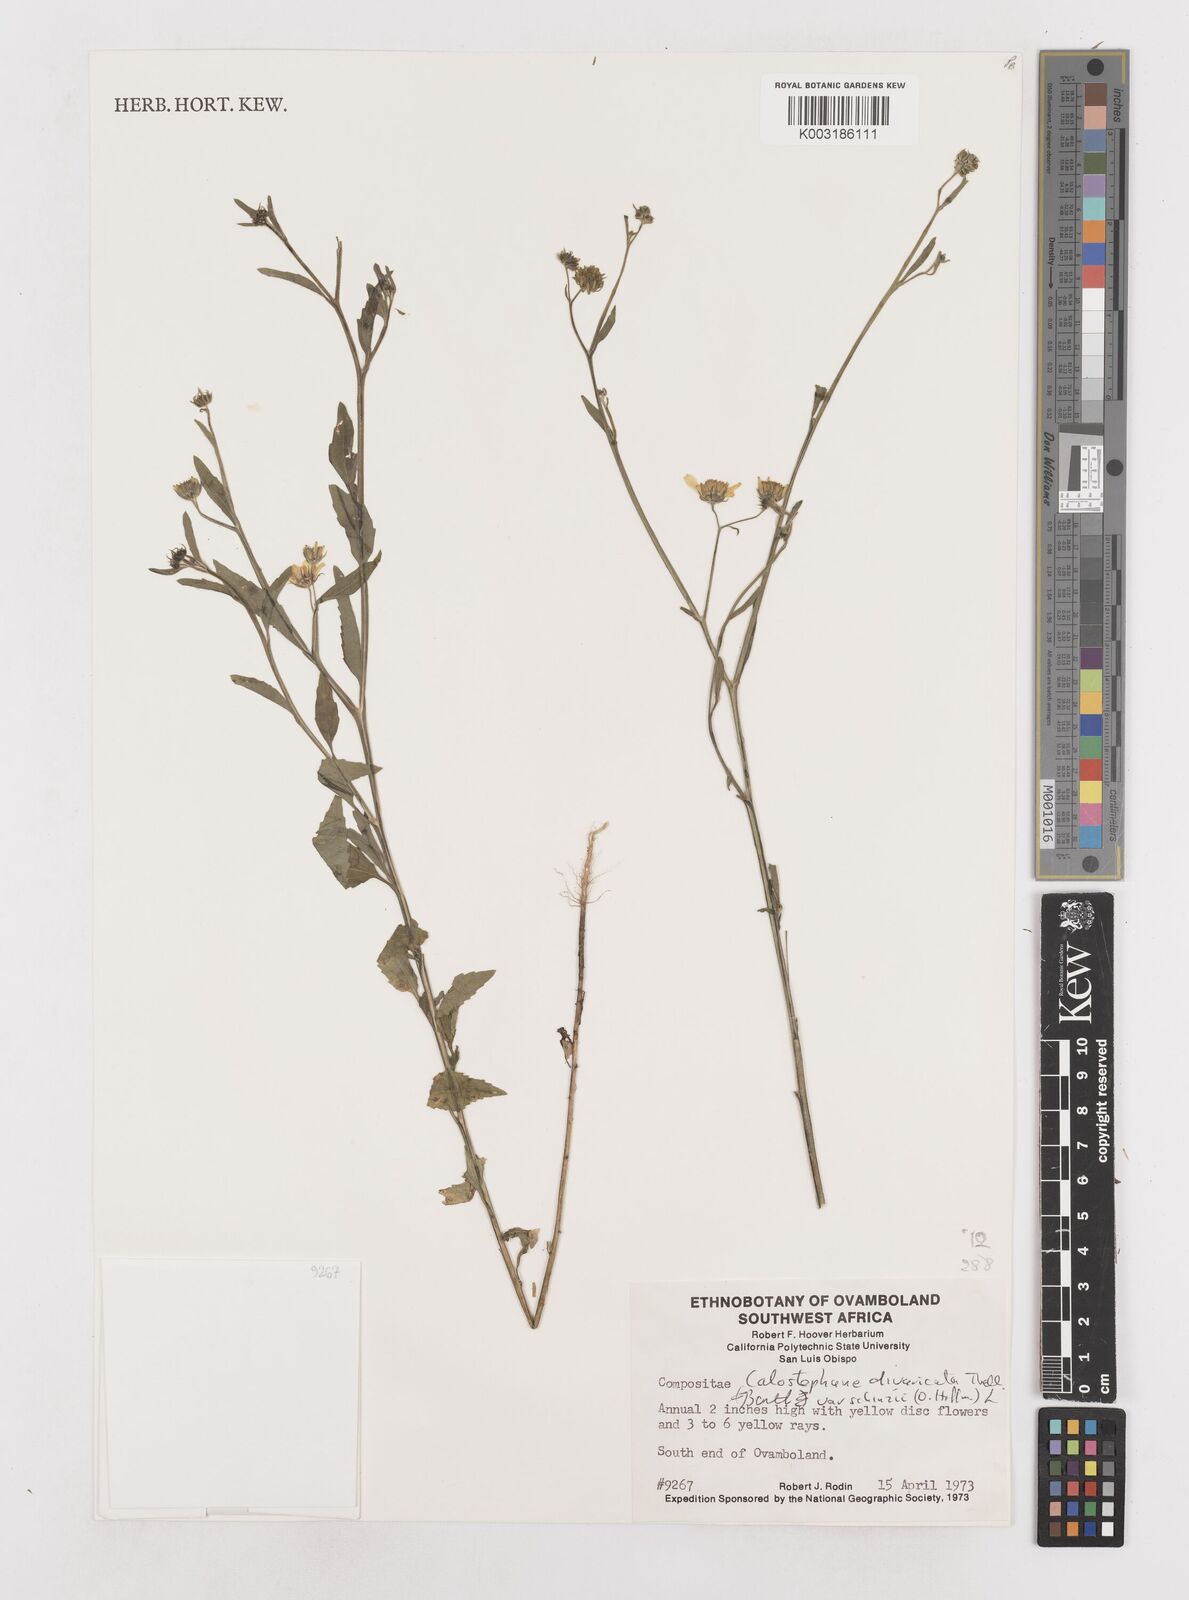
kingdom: Plantae
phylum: Tracheophyta
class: Magnoliopsida
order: Asterales
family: Asteraceae
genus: Calostephane
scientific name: Calostephane divaricata
